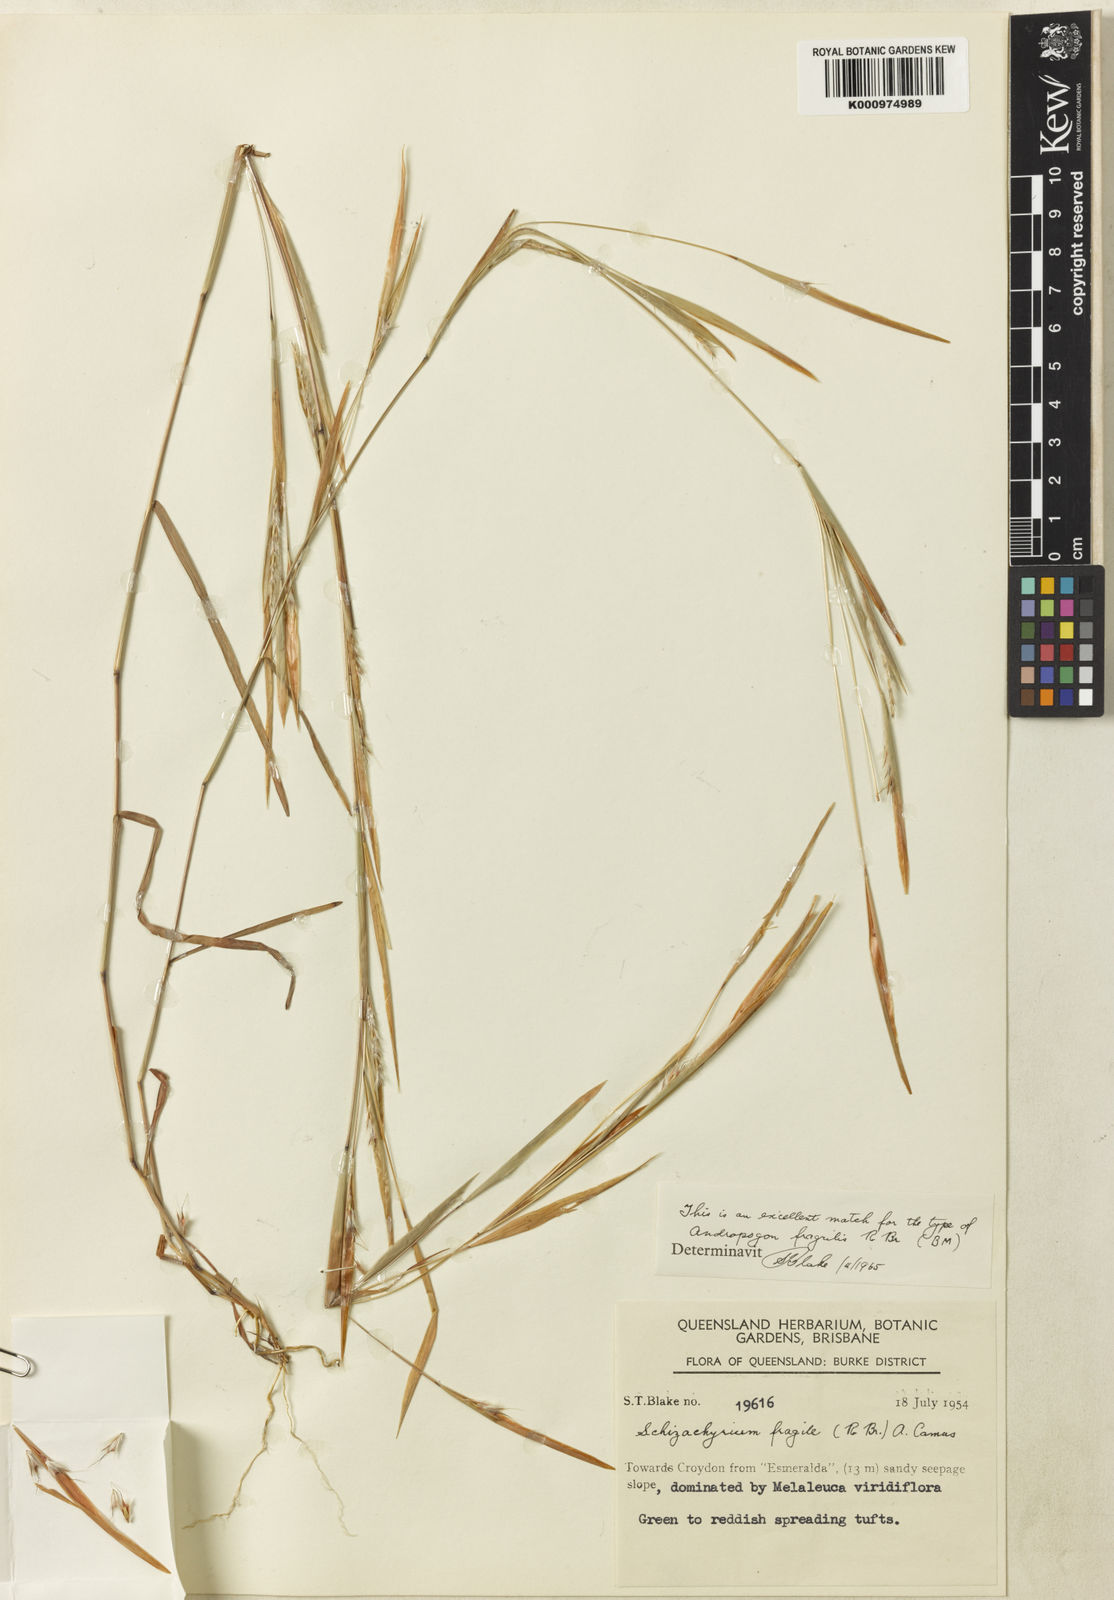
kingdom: Plantae
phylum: Tracheophyta
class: Liliopsida
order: Poales
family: Poaceae
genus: Schizachyrium
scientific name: Schizachyrium fragile
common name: Red spathe grass
